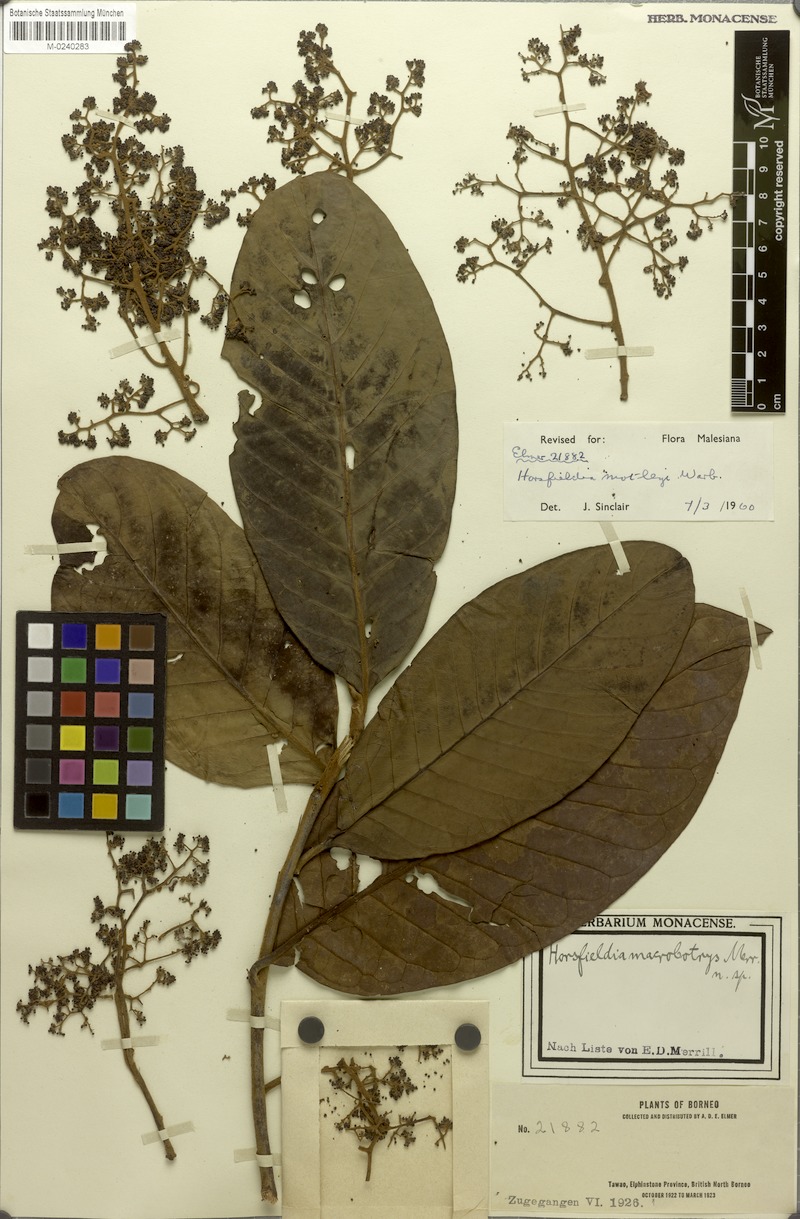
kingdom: Plantae
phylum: Tracheophyta
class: Magnoliopsida
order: Magnoliales
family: Myristicaceae
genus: Horsfieldia
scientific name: Horsfieldia motleyi
